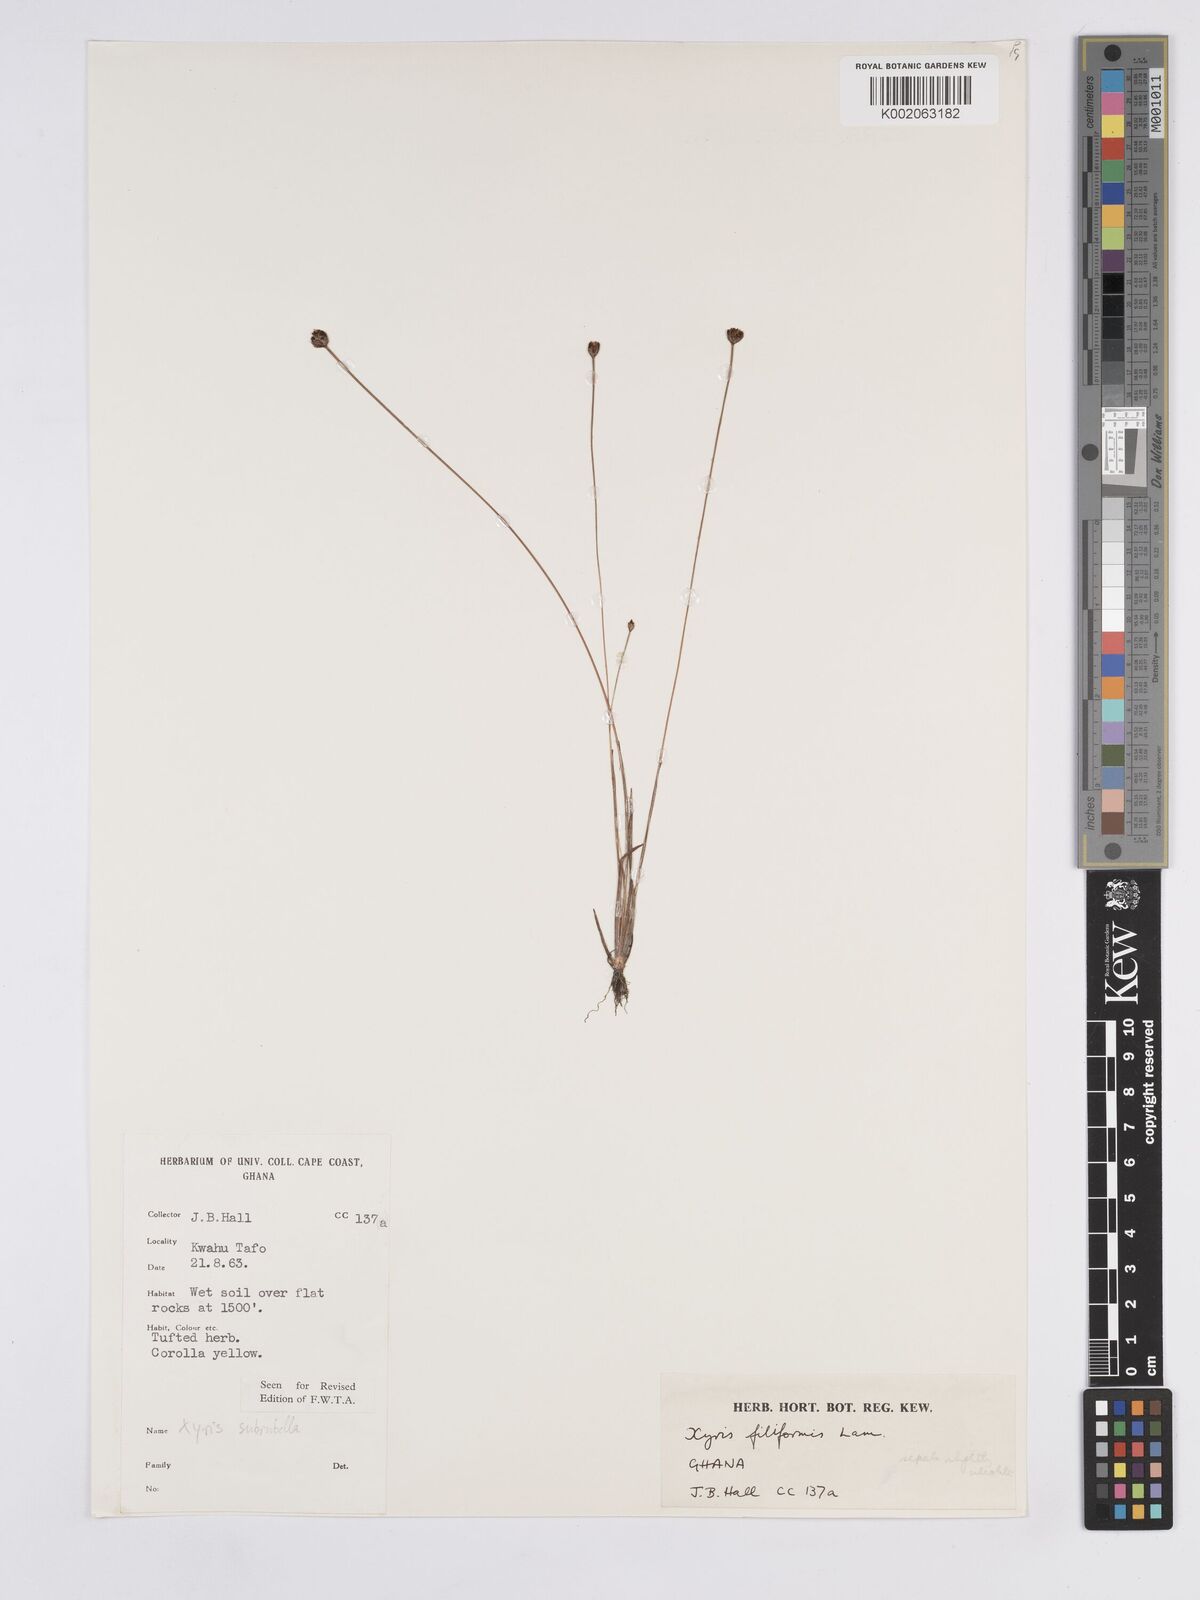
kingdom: Plantae
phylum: Tracheophyta
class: Liliopsida
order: Poales
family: Xyridaceae
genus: Xyris
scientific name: Xyris filiformis
